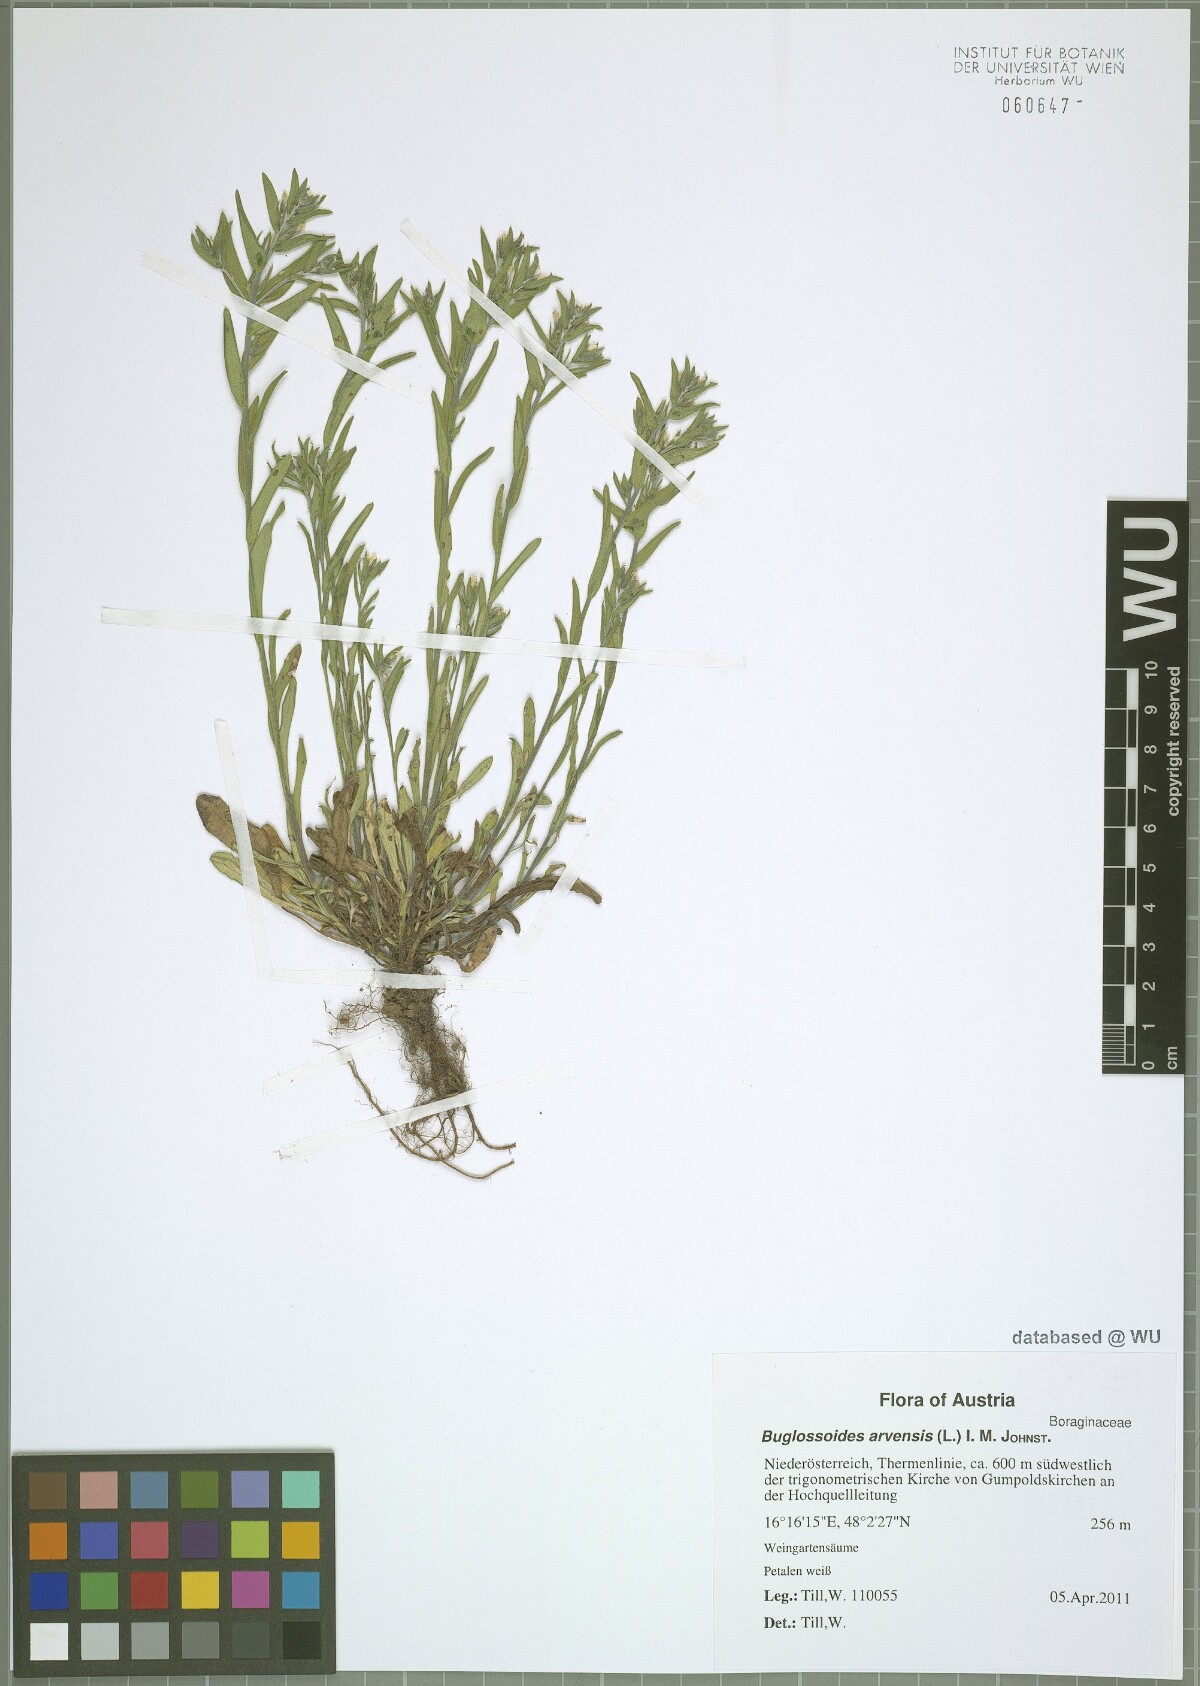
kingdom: Plantae
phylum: Tracheophyta
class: Magnoliopsida
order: Boraginales
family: Boraginaceae
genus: Buglossoides
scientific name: Buglossoides arvensis
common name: Corn gromwell
